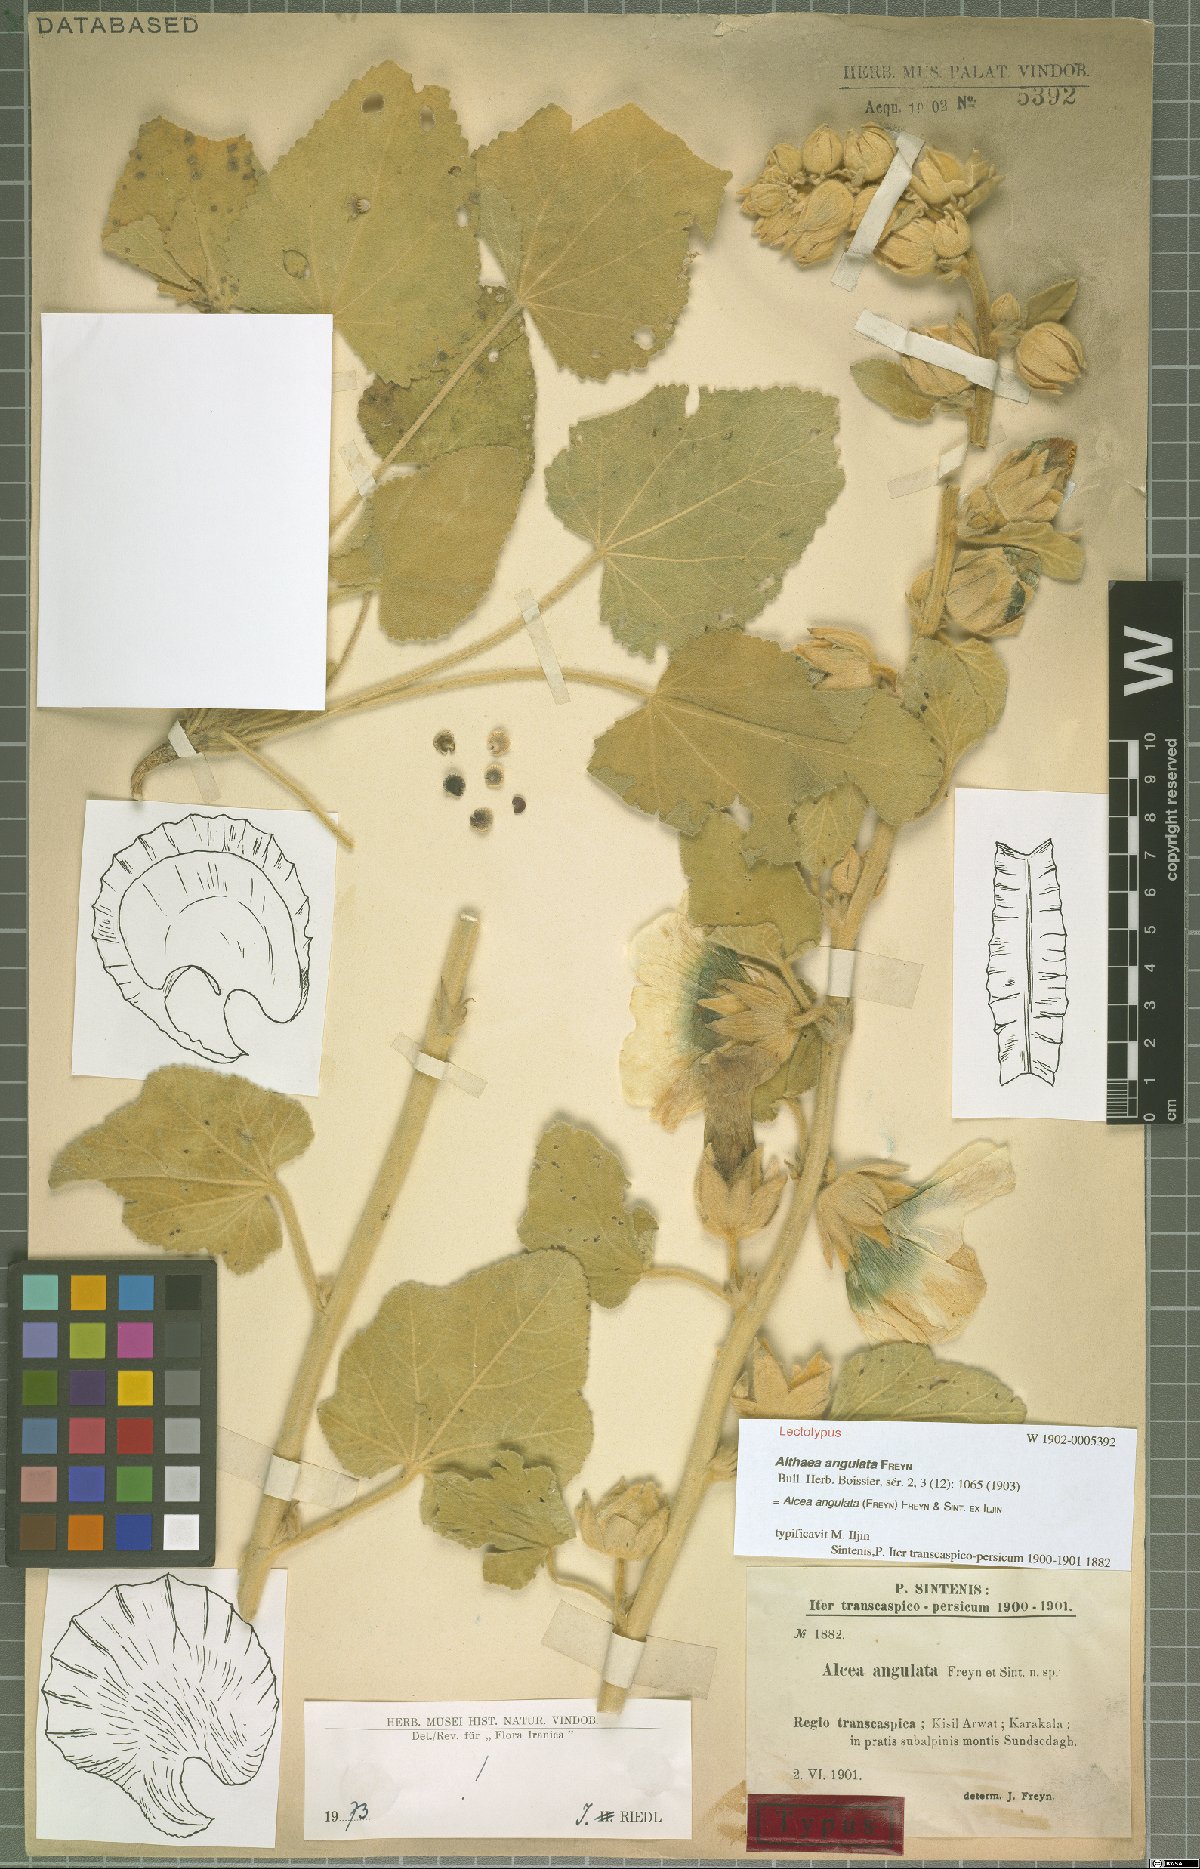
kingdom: Plantae
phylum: Tracheophyta
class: Magnoliopsida
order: Malvales
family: Malvaceae
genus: Alcea
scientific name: Alcea angulata
